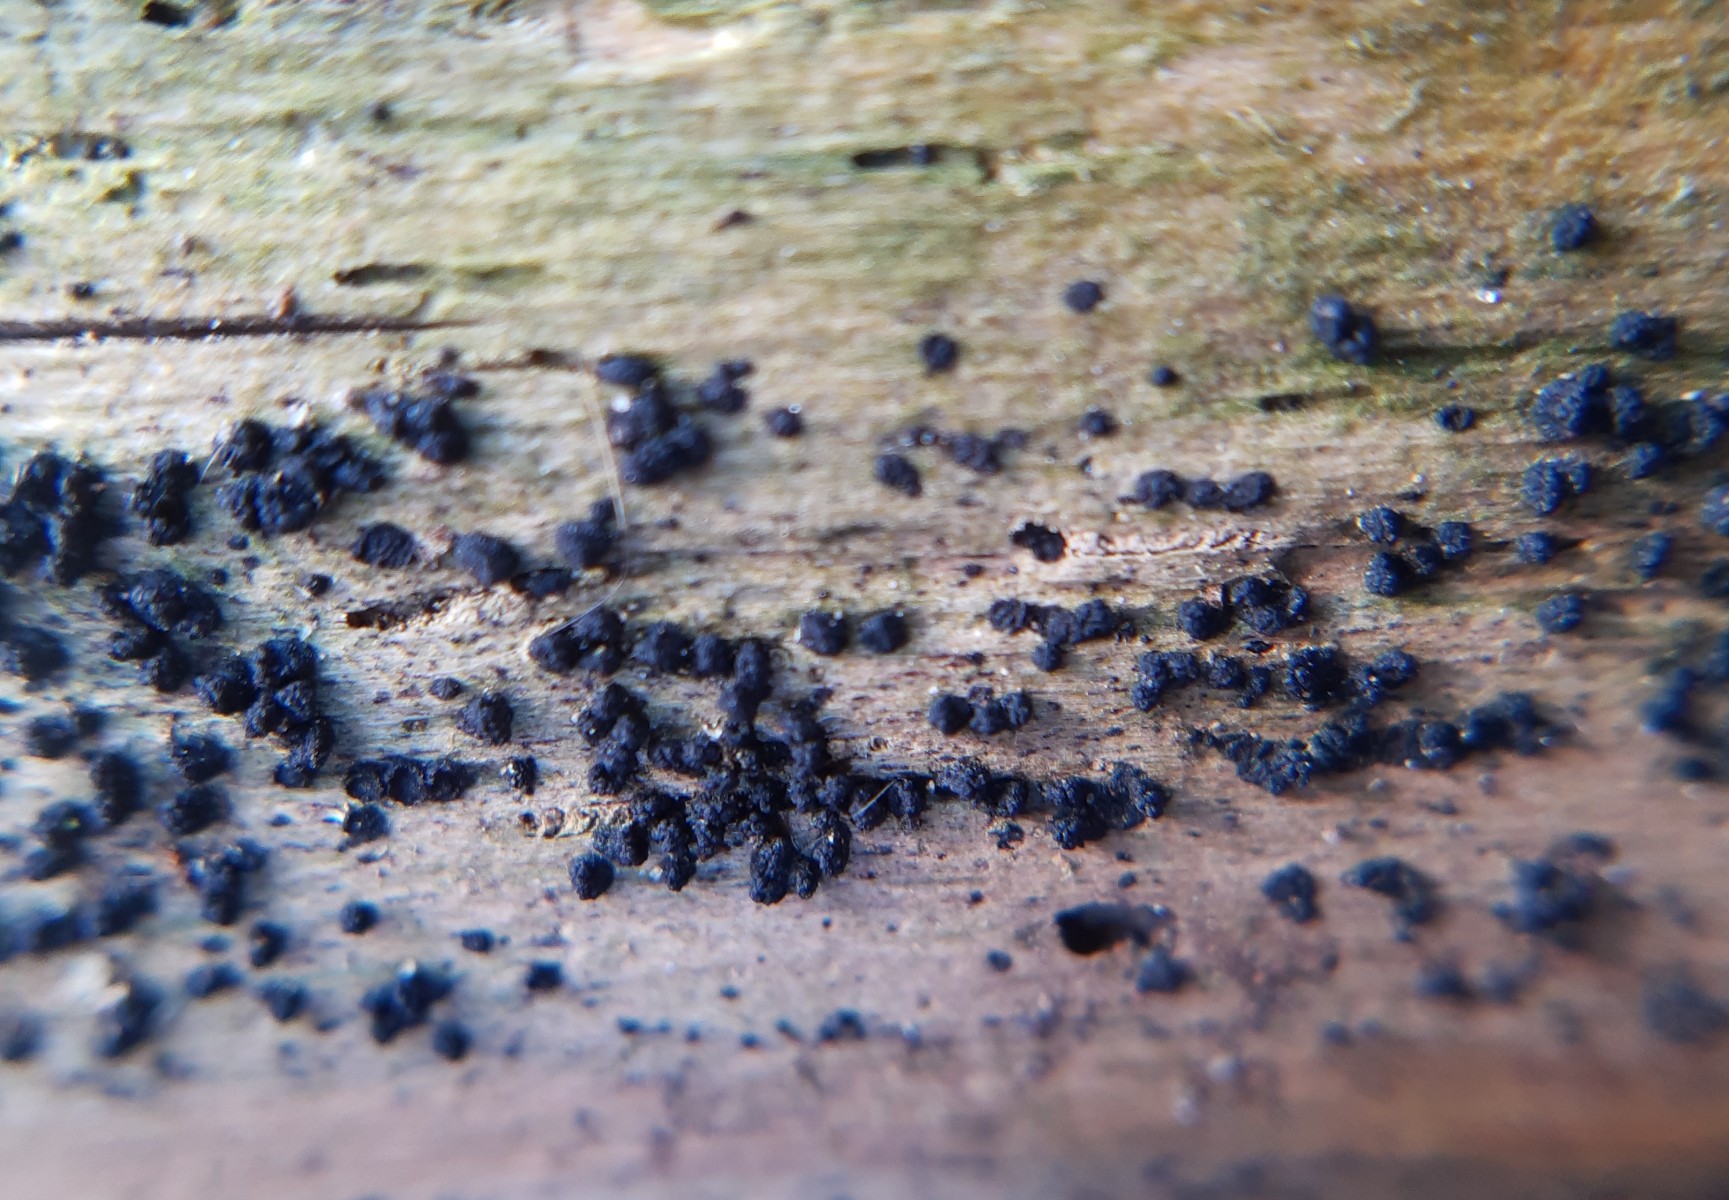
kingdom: Fungi
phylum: Ascomycota
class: Sordariomycetes
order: Coronophorales
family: Bertiaceae
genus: Bertia
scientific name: Bertia moriformis
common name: almindelig morbærkerne
